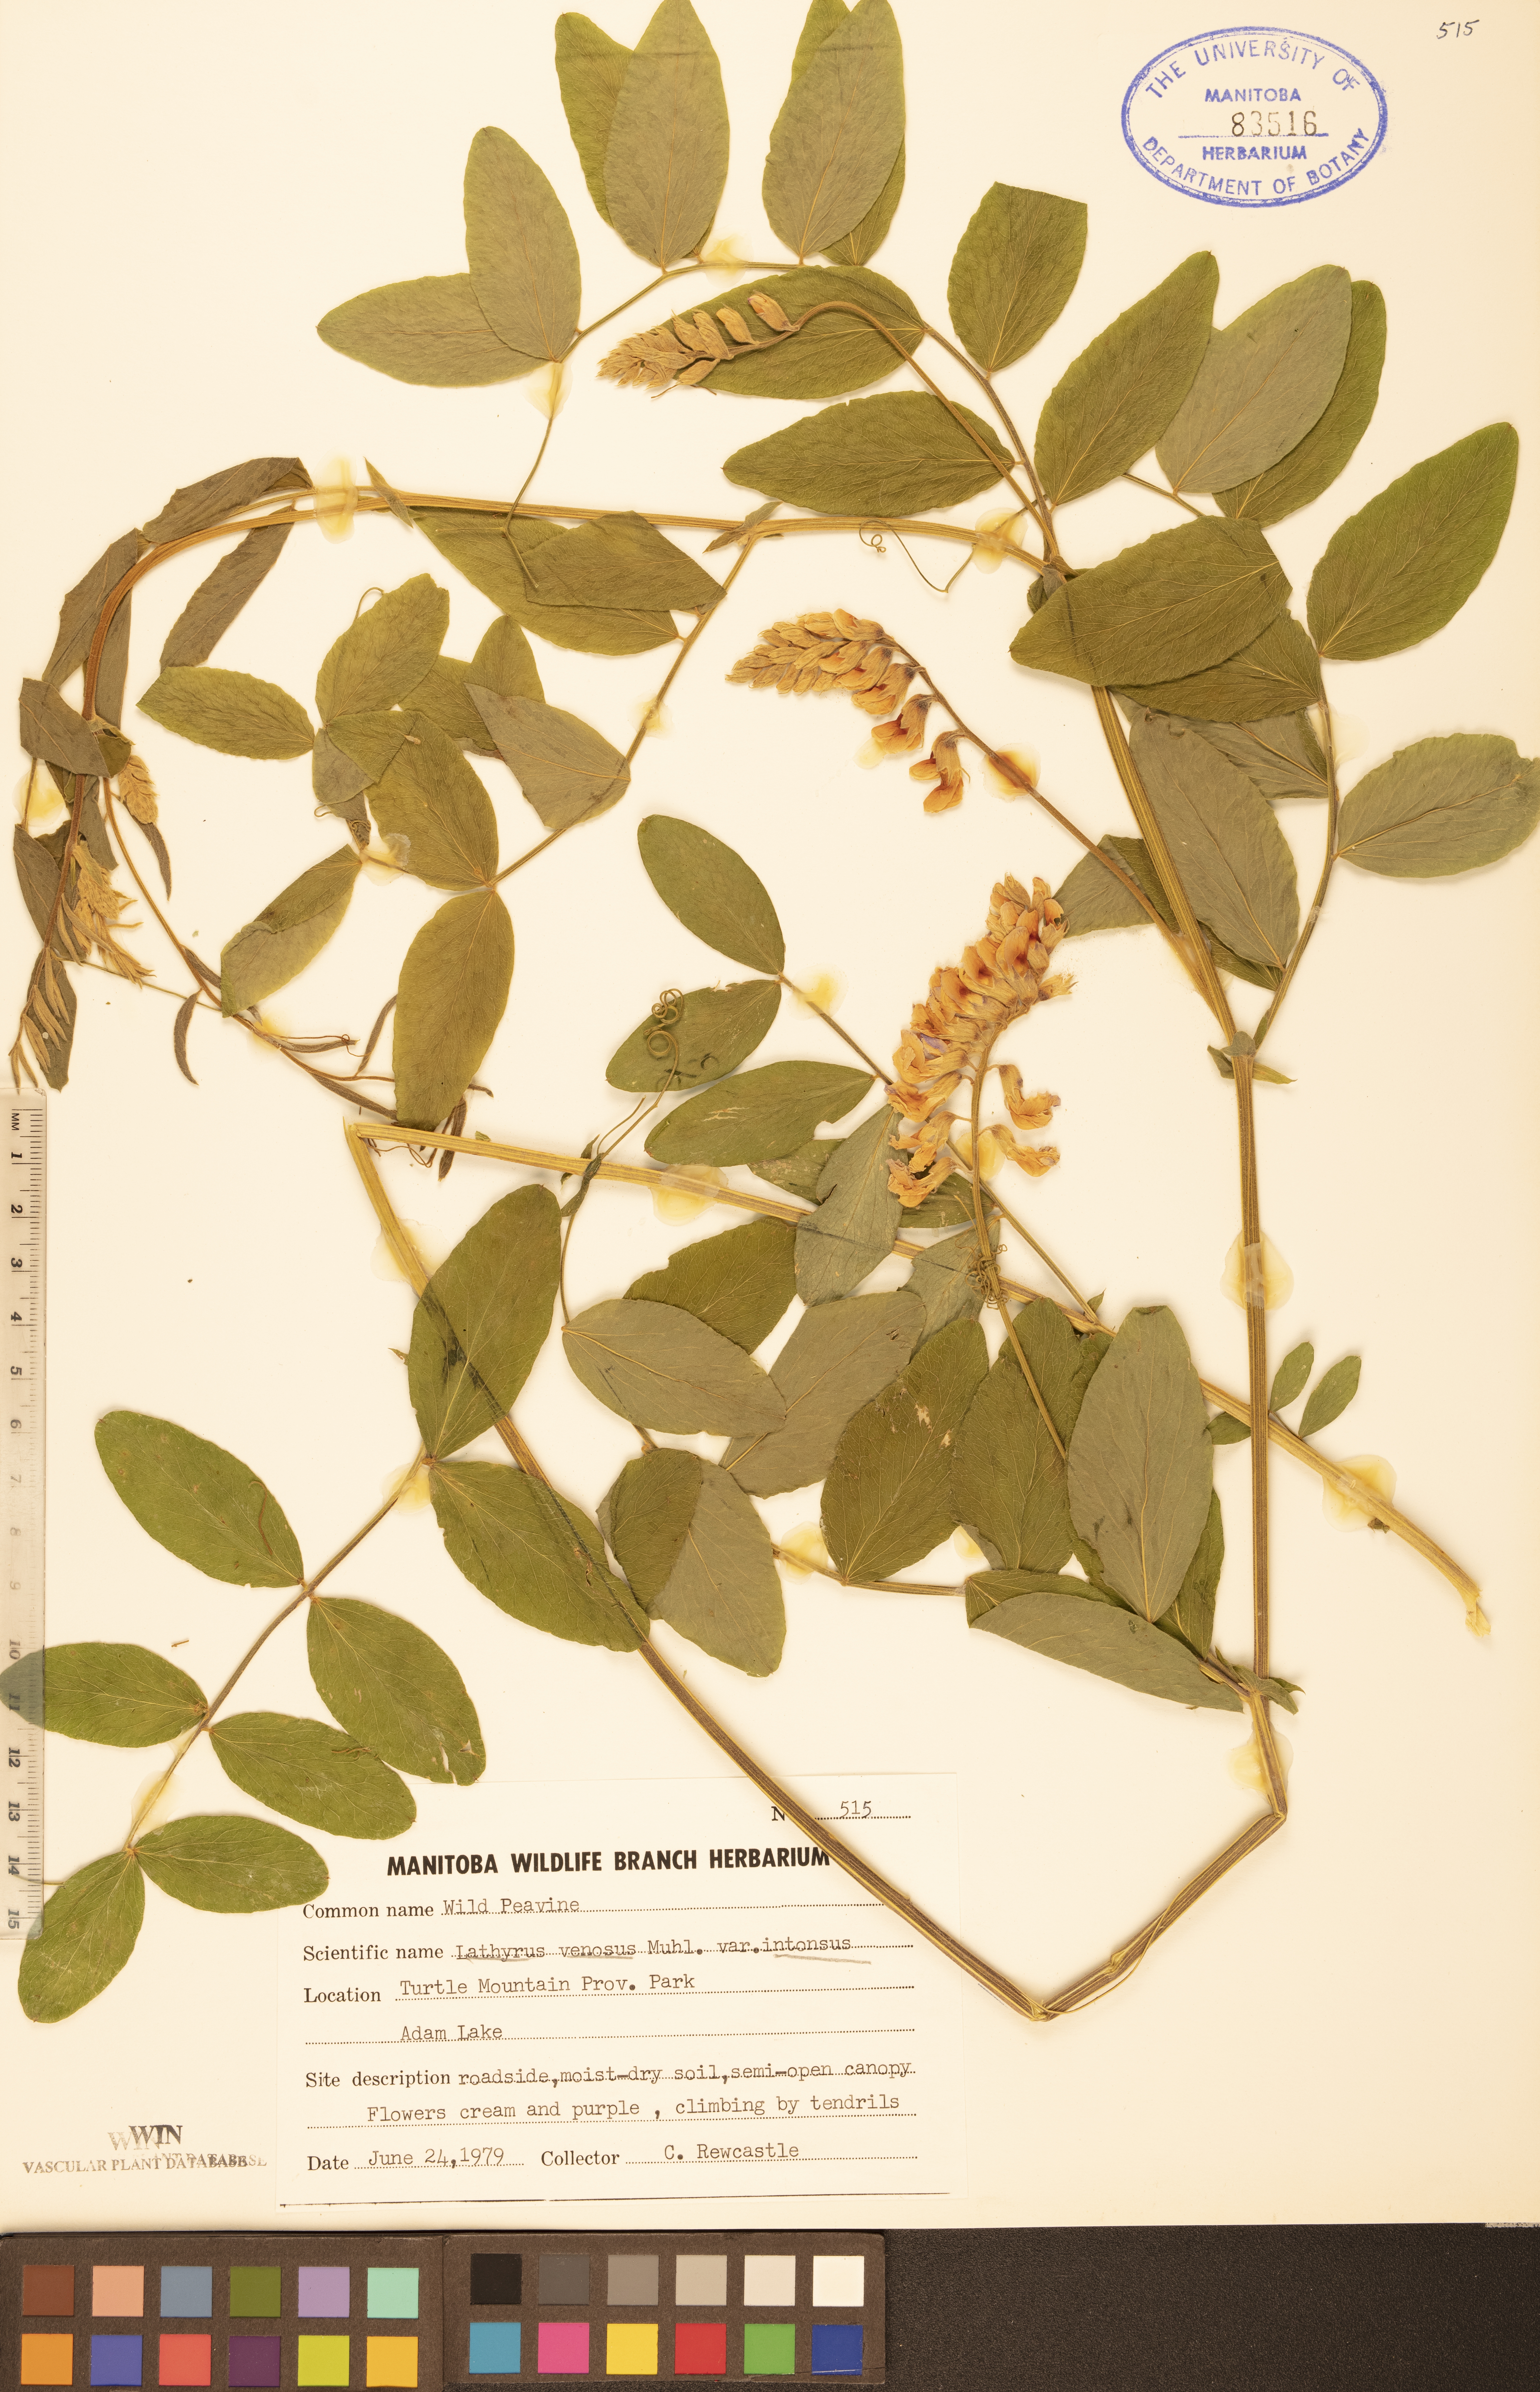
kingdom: Plantae
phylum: Tracheophyta
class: Magnoliopsida
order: Fabales
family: Fabaceae
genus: Lathyrus
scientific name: Lathyrus venosus
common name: Forest-pea
